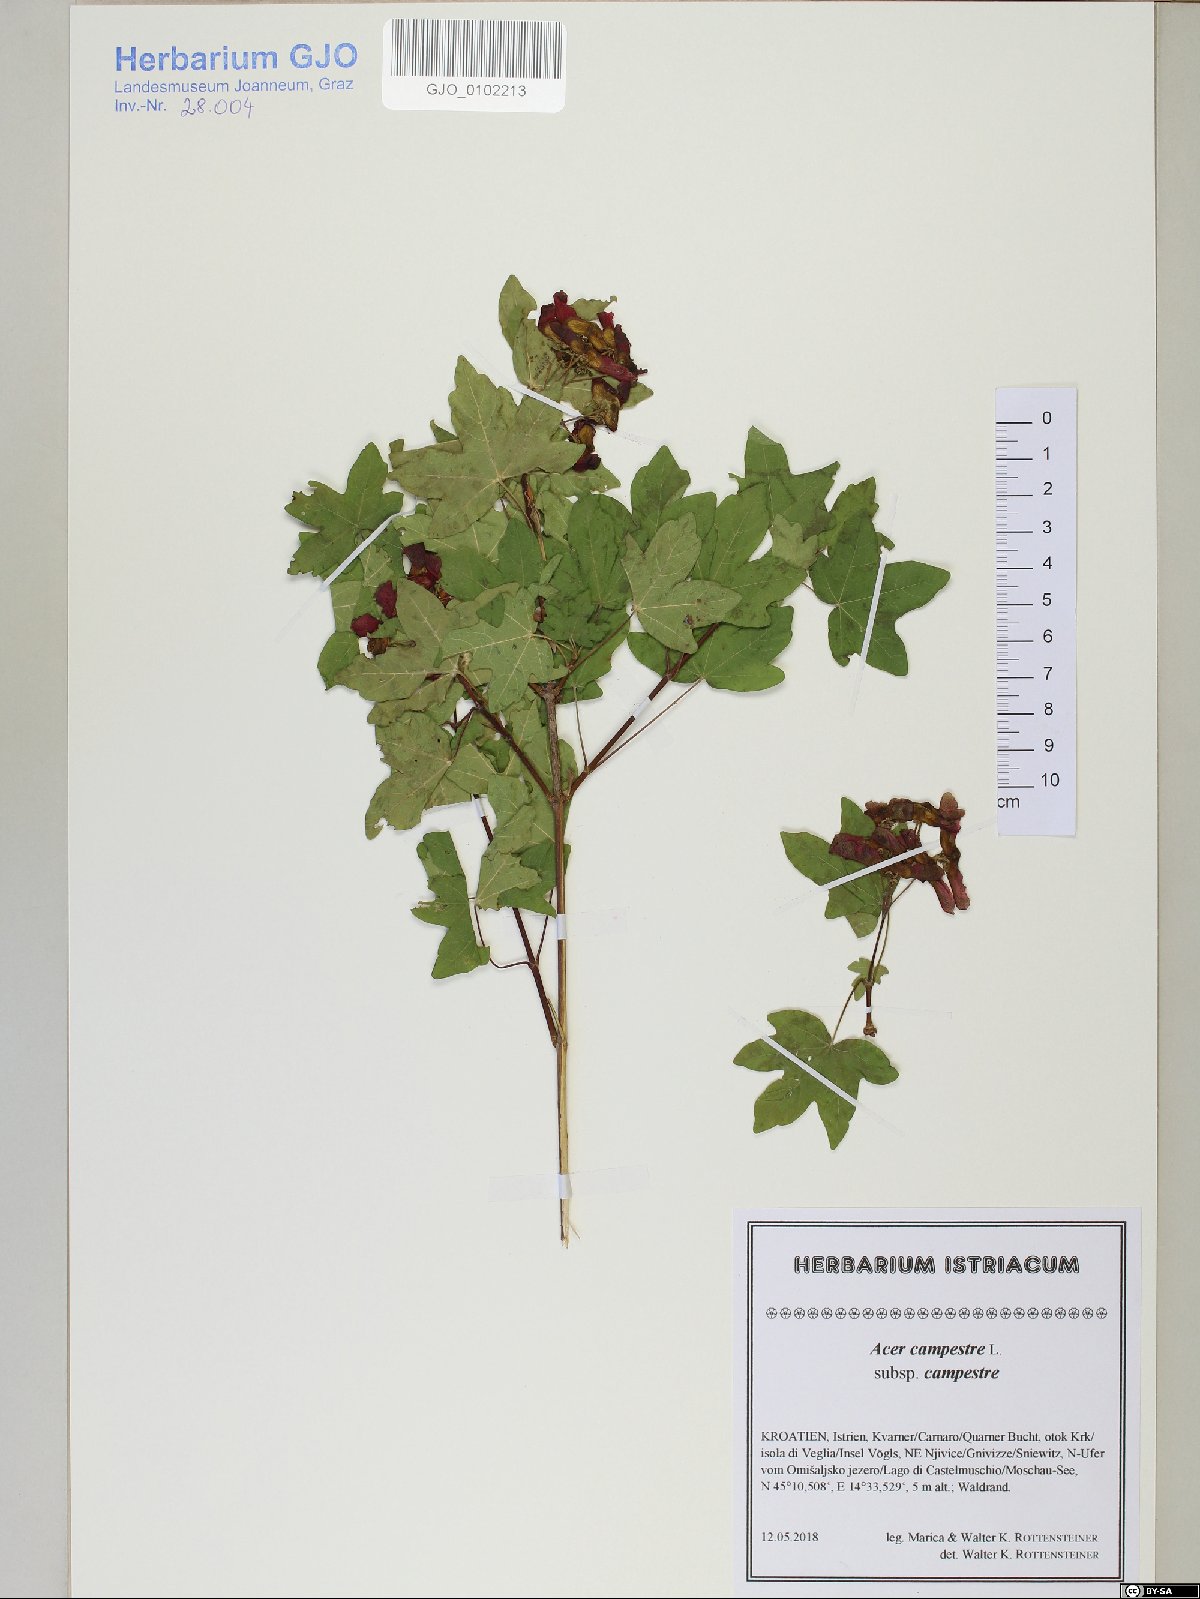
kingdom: Plantae
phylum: Tracheophyta
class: Magnoliopsida
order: Sapindales
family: Sapindaceae
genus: Acer
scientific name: Acer campestre
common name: Field maple
